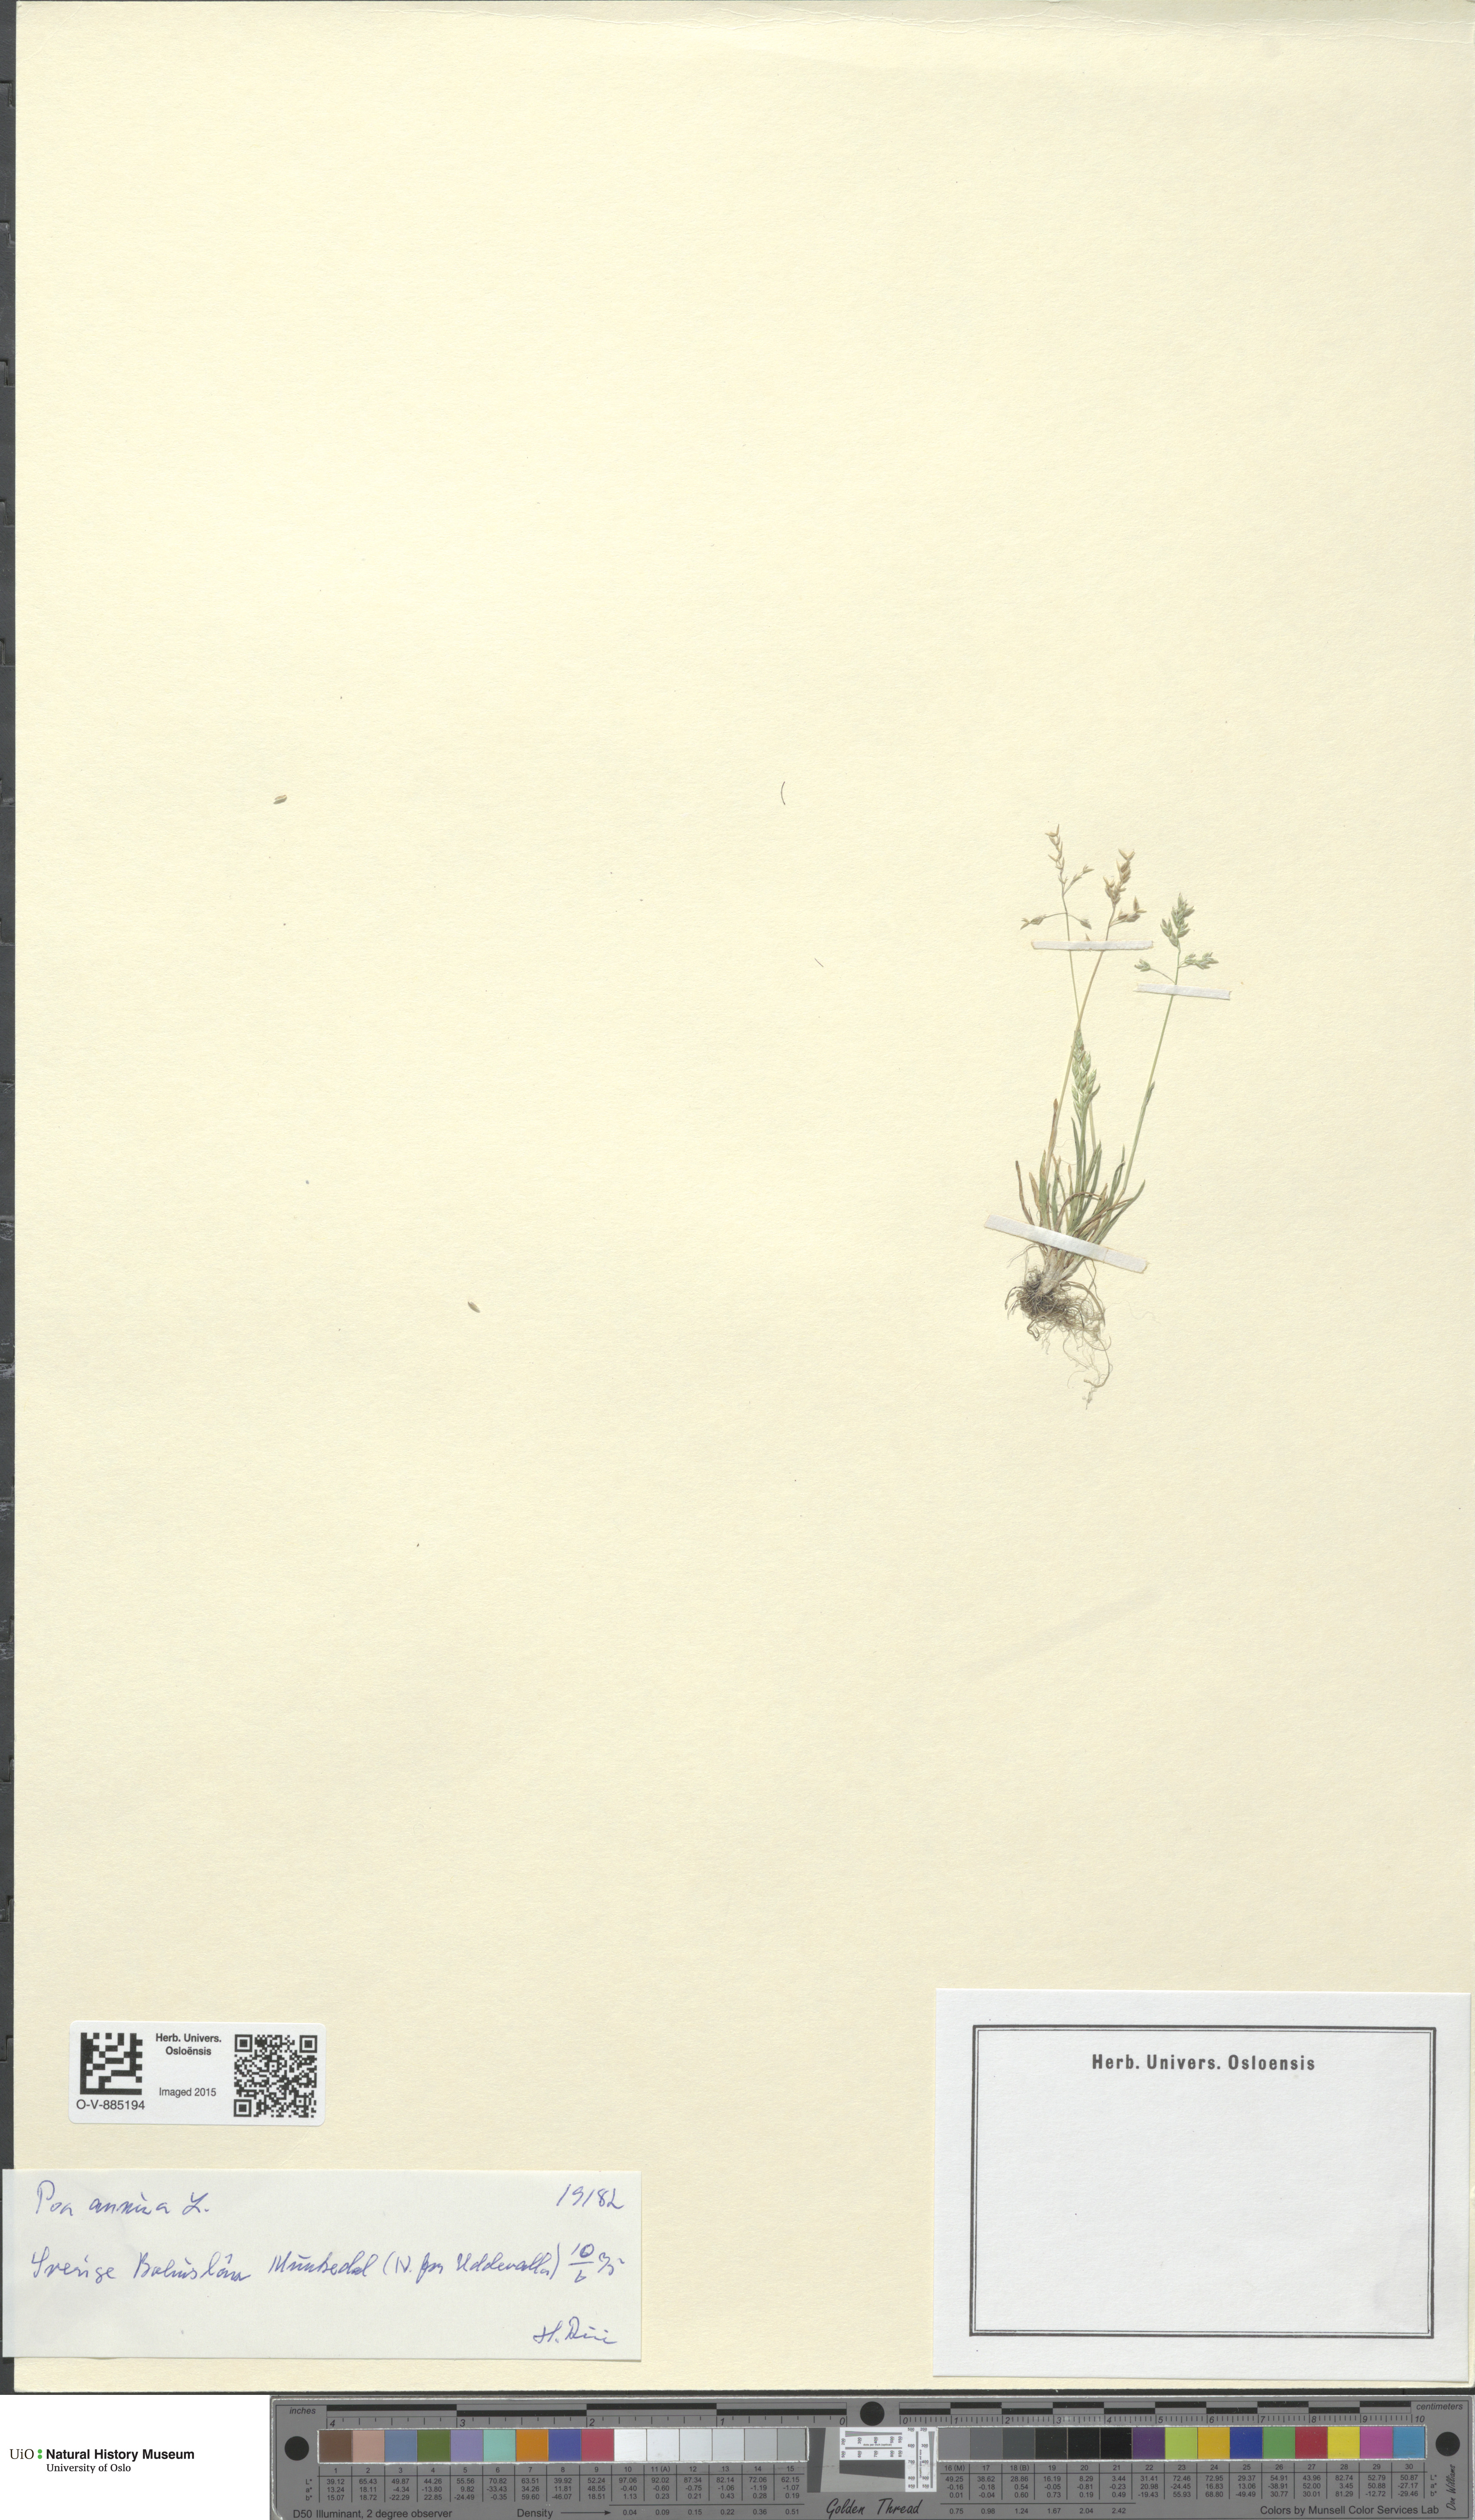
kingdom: Plantae
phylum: Tracheophyta
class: Liliopsida
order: Poales
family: Poaceae
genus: Poa
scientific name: Poa annua
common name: Annual bluegrass
